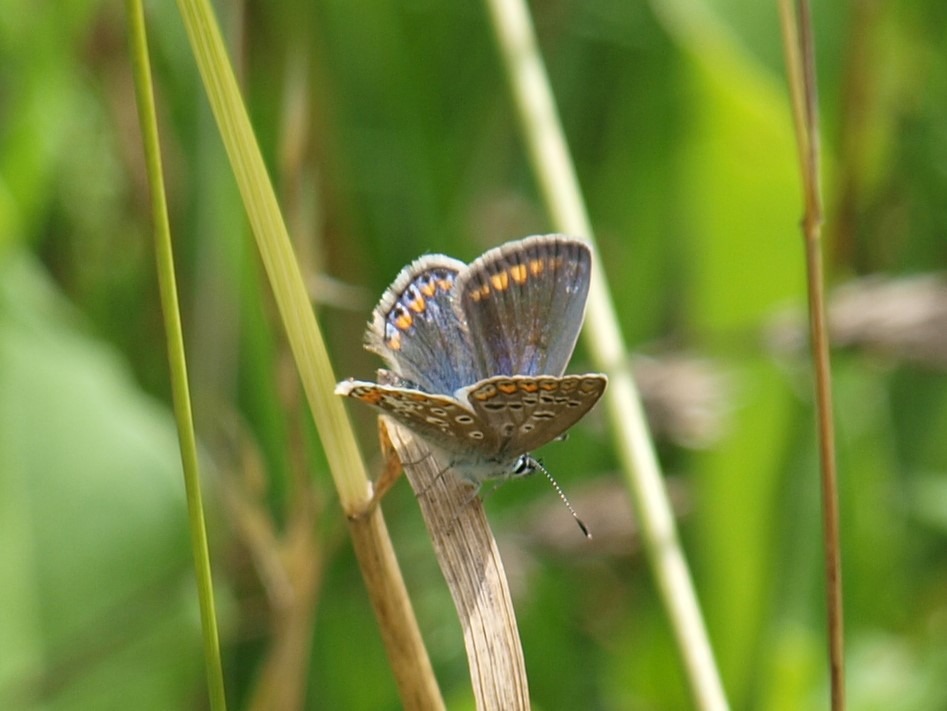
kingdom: Animalia
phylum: Arthropoda
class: Insecta
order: Lepidoptera
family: Lycaenidae
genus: Polyommatus
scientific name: Polyommatus icarus
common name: Almindelig blåfugl
